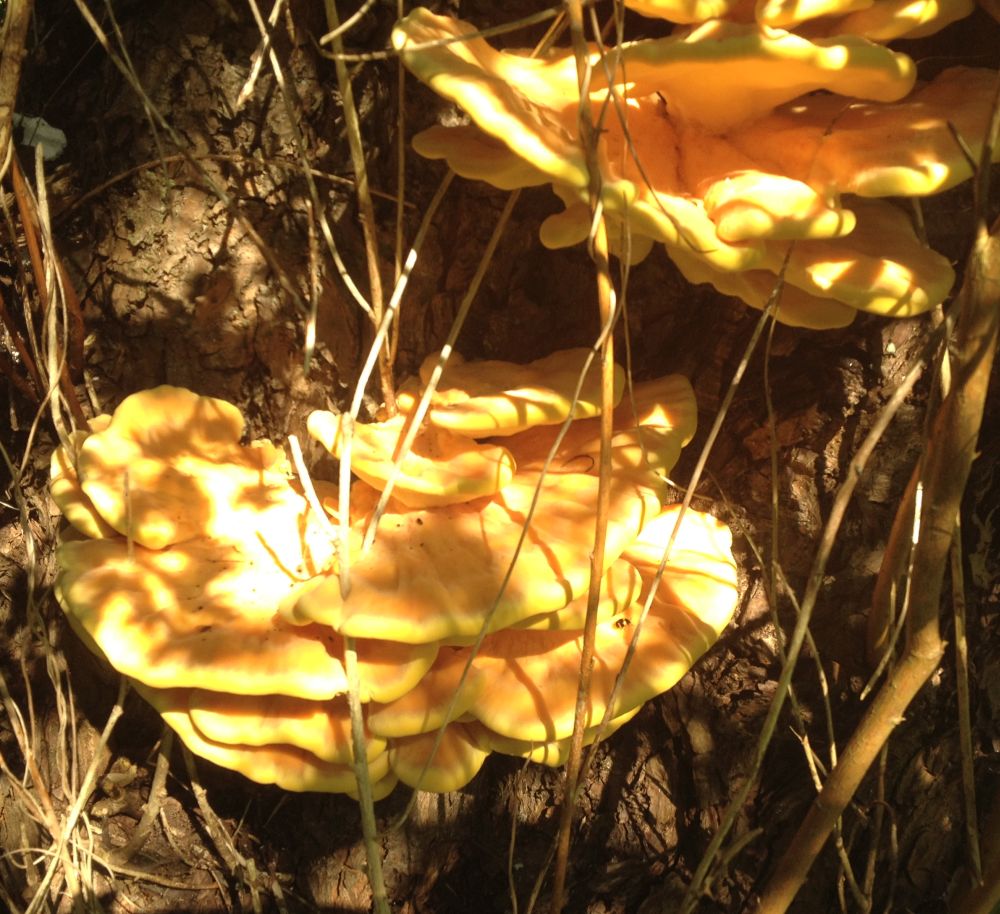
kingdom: Fungi
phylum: Basidiomycota
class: Agaricomycetes
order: Polyporales
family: Laetiporaceae
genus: Laetiporus
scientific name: Laetiporus sulphureus
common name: svovlporesvamp
